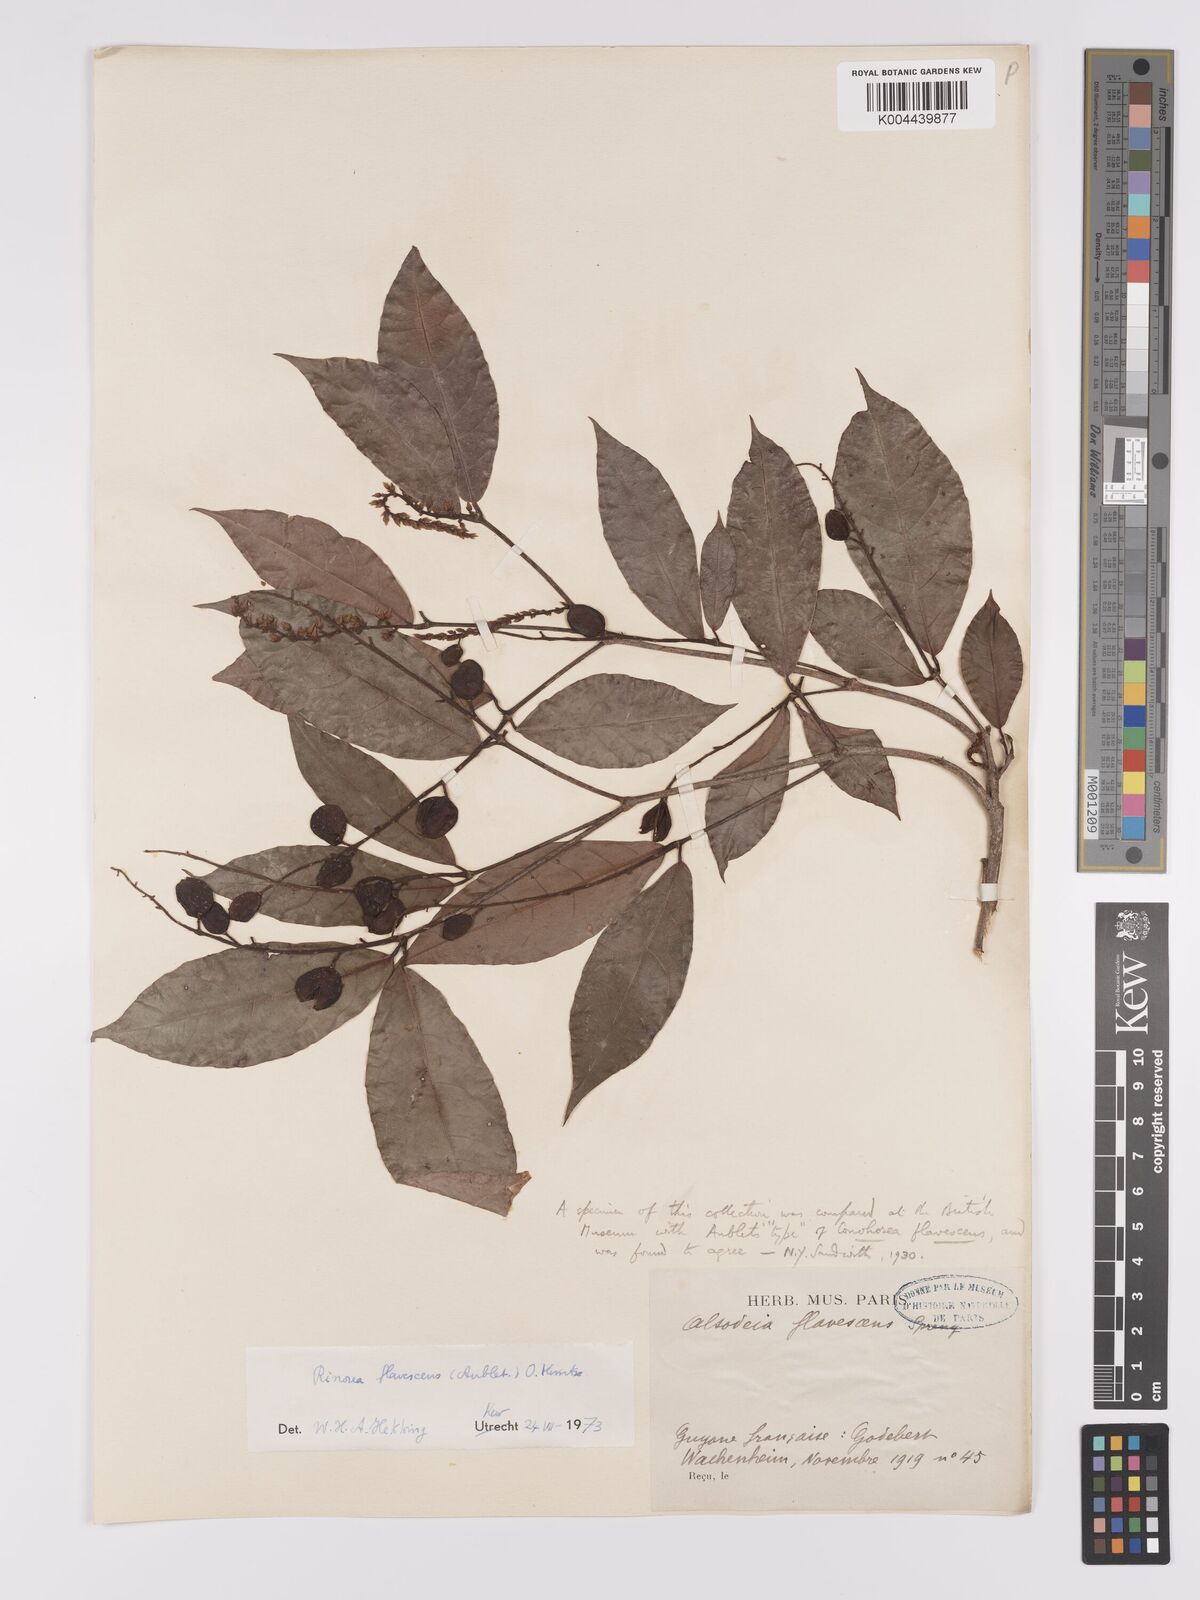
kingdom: Plantae
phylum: Tracheophyta
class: Magnoliopsida
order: Malpighiales
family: Violaceae
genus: Rinorea
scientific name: Rinorea flavescens
